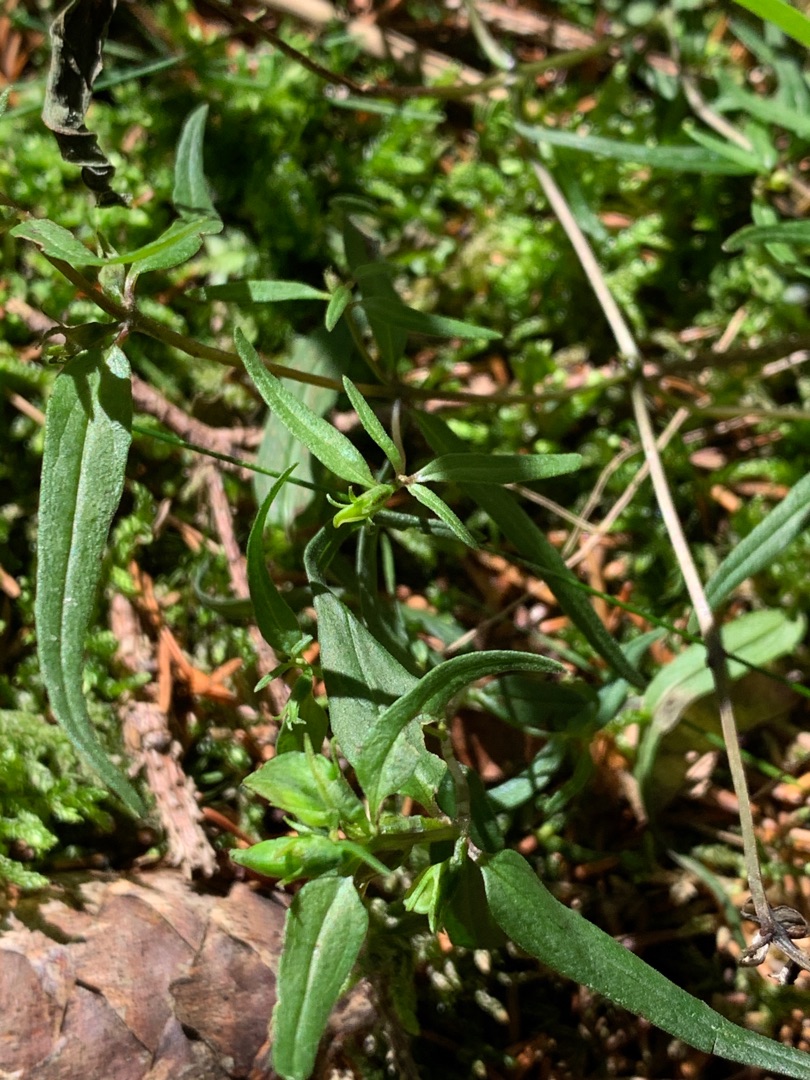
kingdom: Plantae
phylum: Tracheophyta
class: Magnoliopsida
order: Lamiales
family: Orobanchaceae
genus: Melampyrum
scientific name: Melampyrum pratense
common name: Almindelig kohvede
